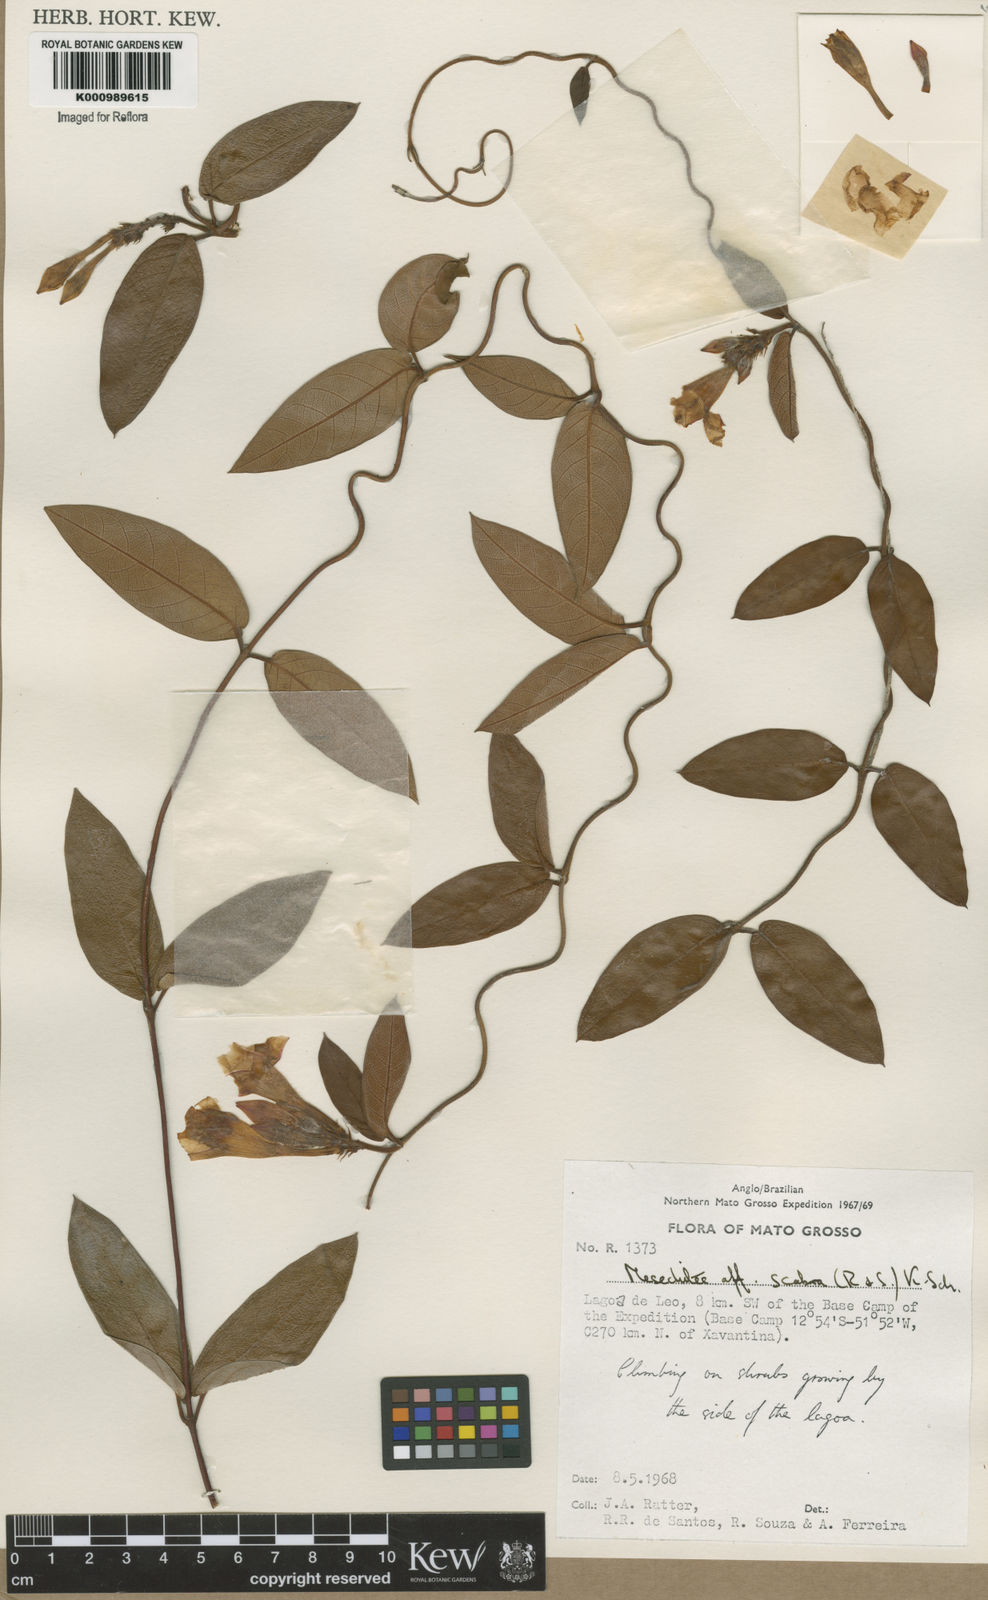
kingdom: Plantae
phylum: Tracheophyta
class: Magnoliopsida
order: Gentianales
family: Apocynaceae
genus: Mandevilla
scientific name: Mandevilla scabra
